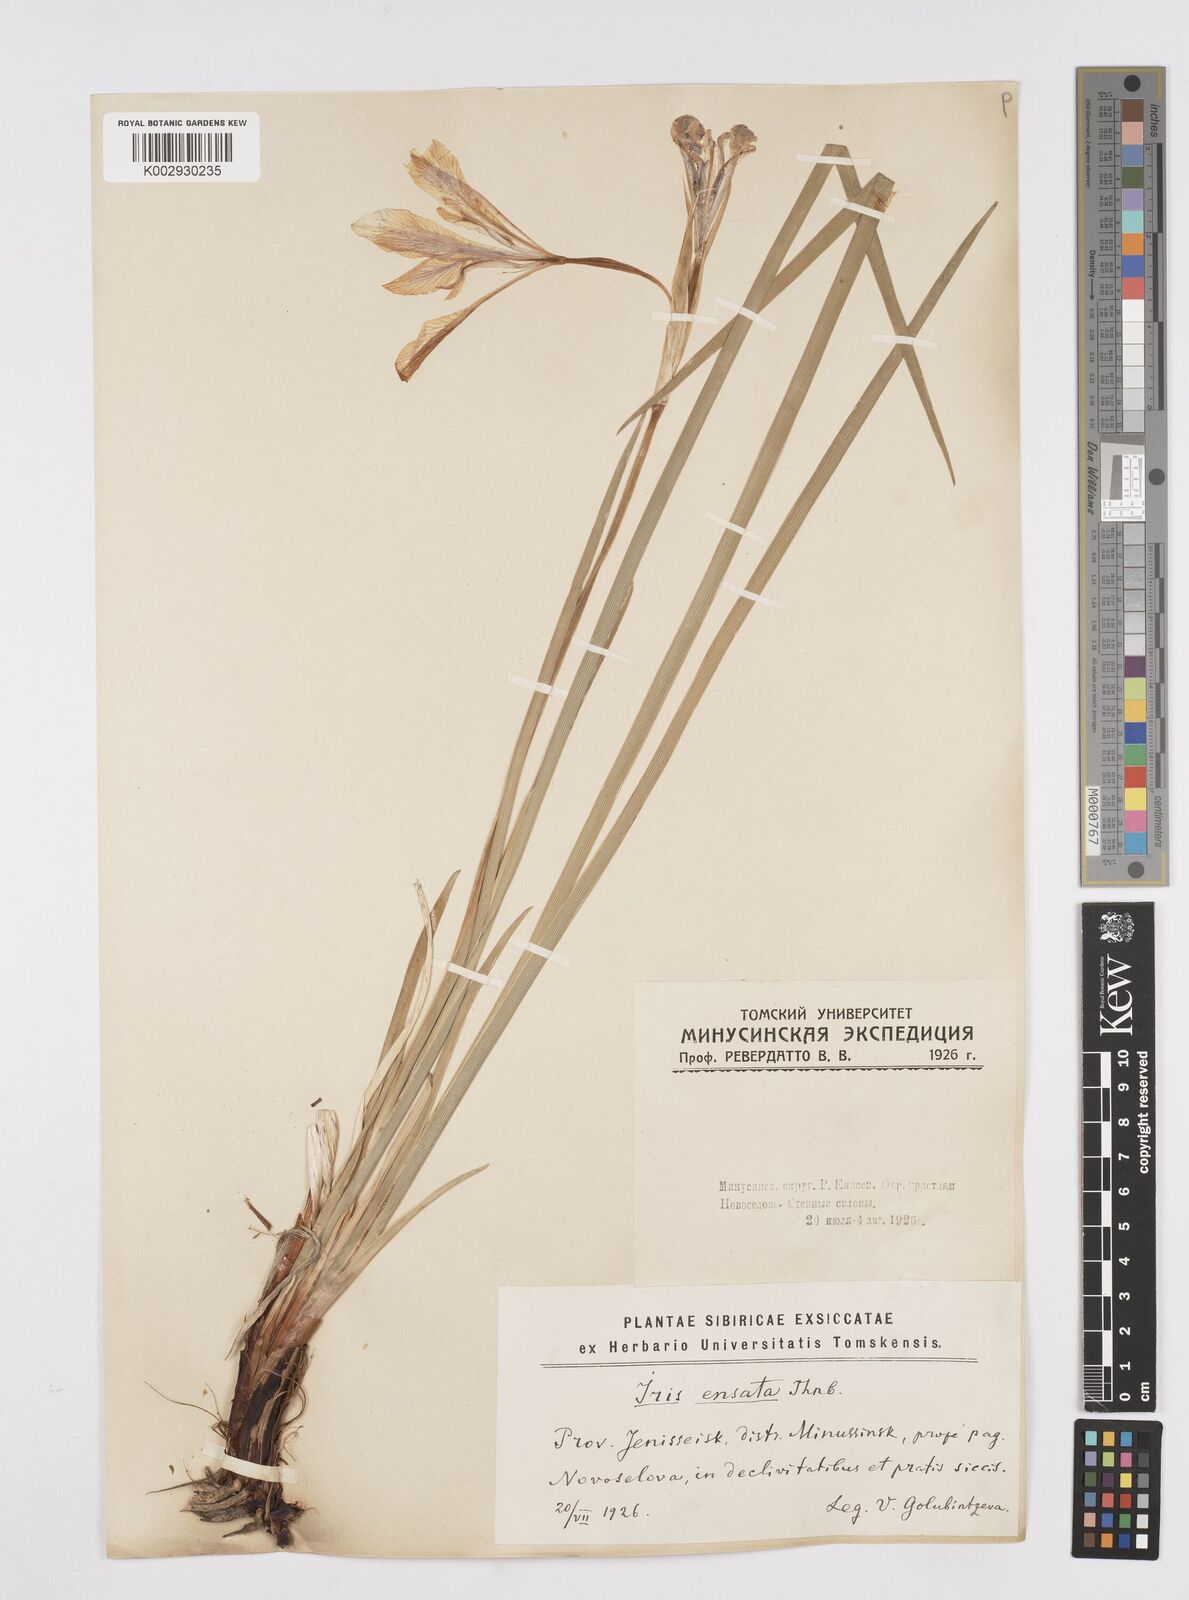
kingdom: Plantae
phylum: Tracheophyta
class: Liliopsida
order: Asparagales
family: Iridaceae
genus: Iris
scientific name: Iris lactea
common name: White-flower chinese iris
